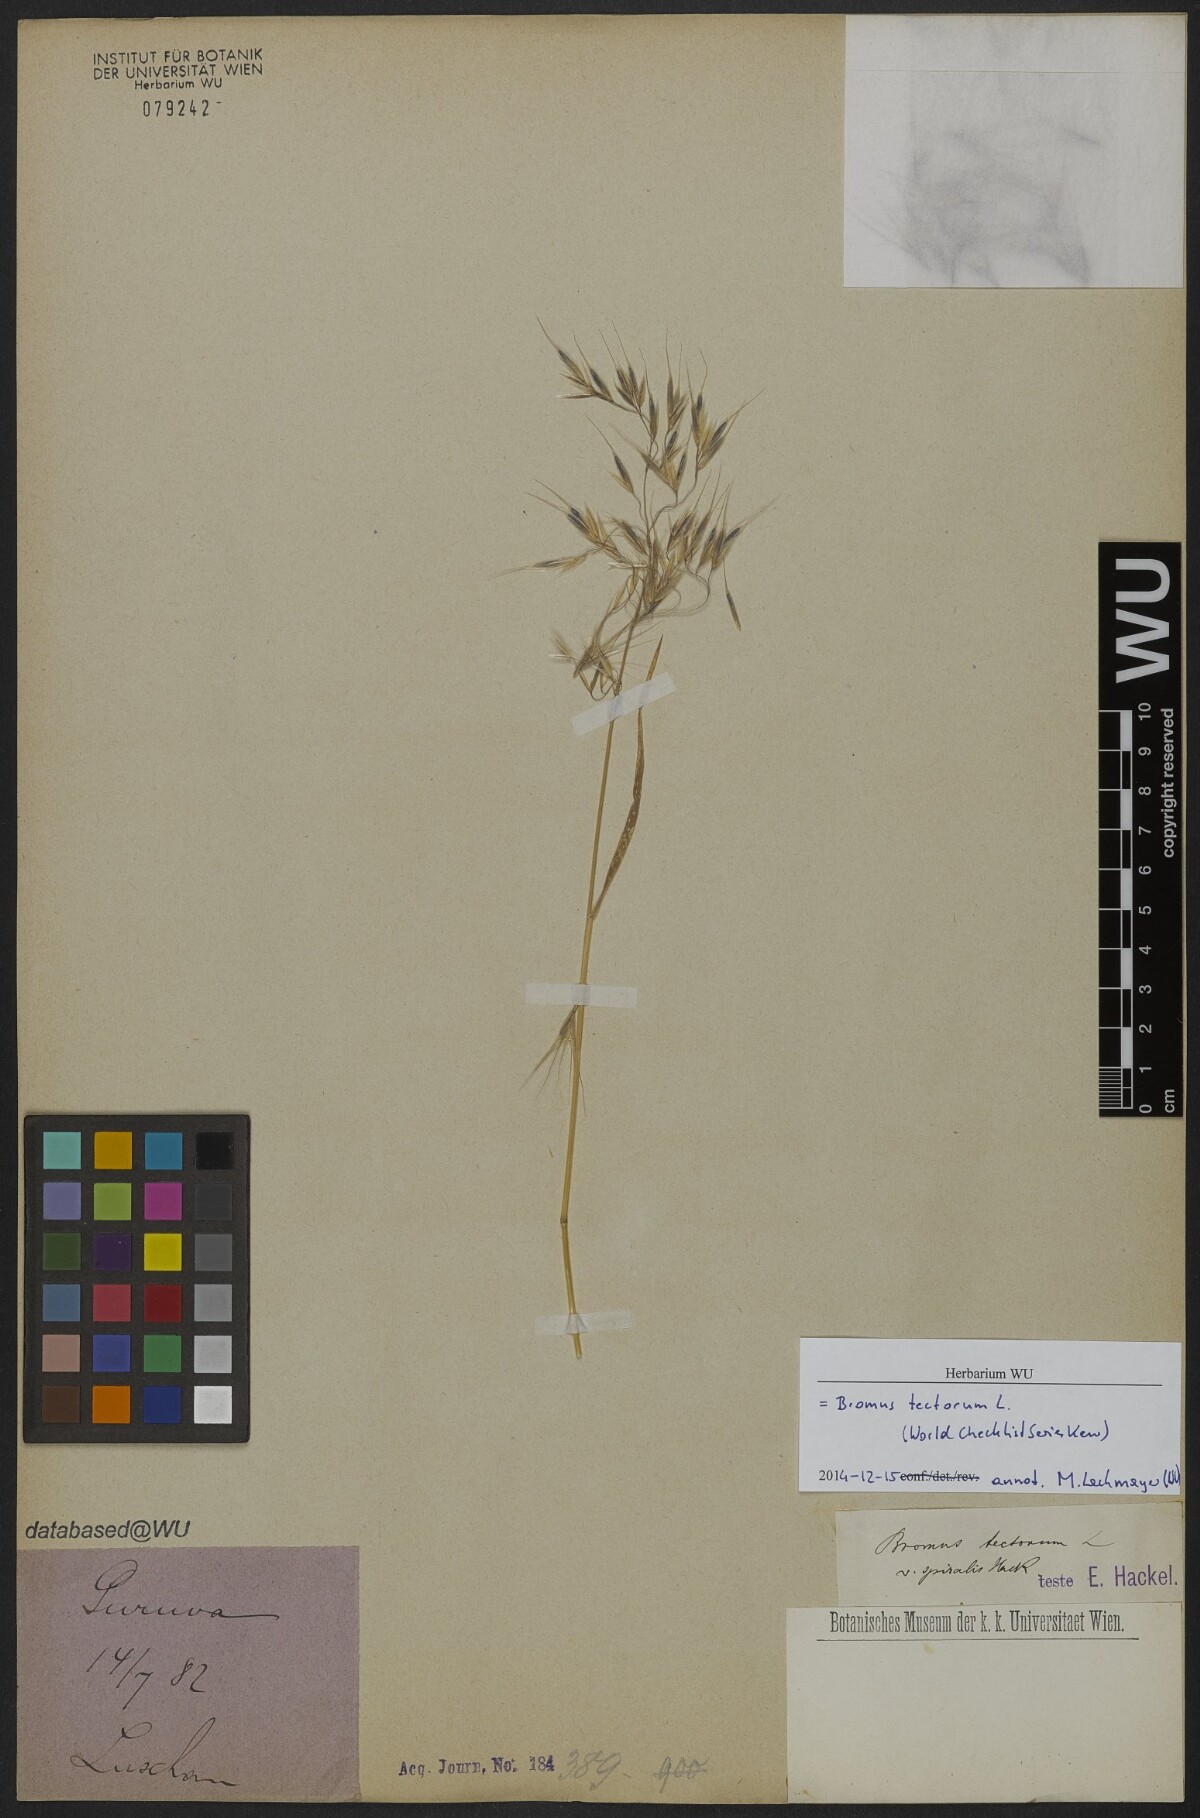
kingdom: Plantae
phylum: Tracheophyta
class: Liliopsida
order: Poales
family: Poaceae
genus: Bromus
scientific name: Bromus tectorum
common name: Cheatgrass
